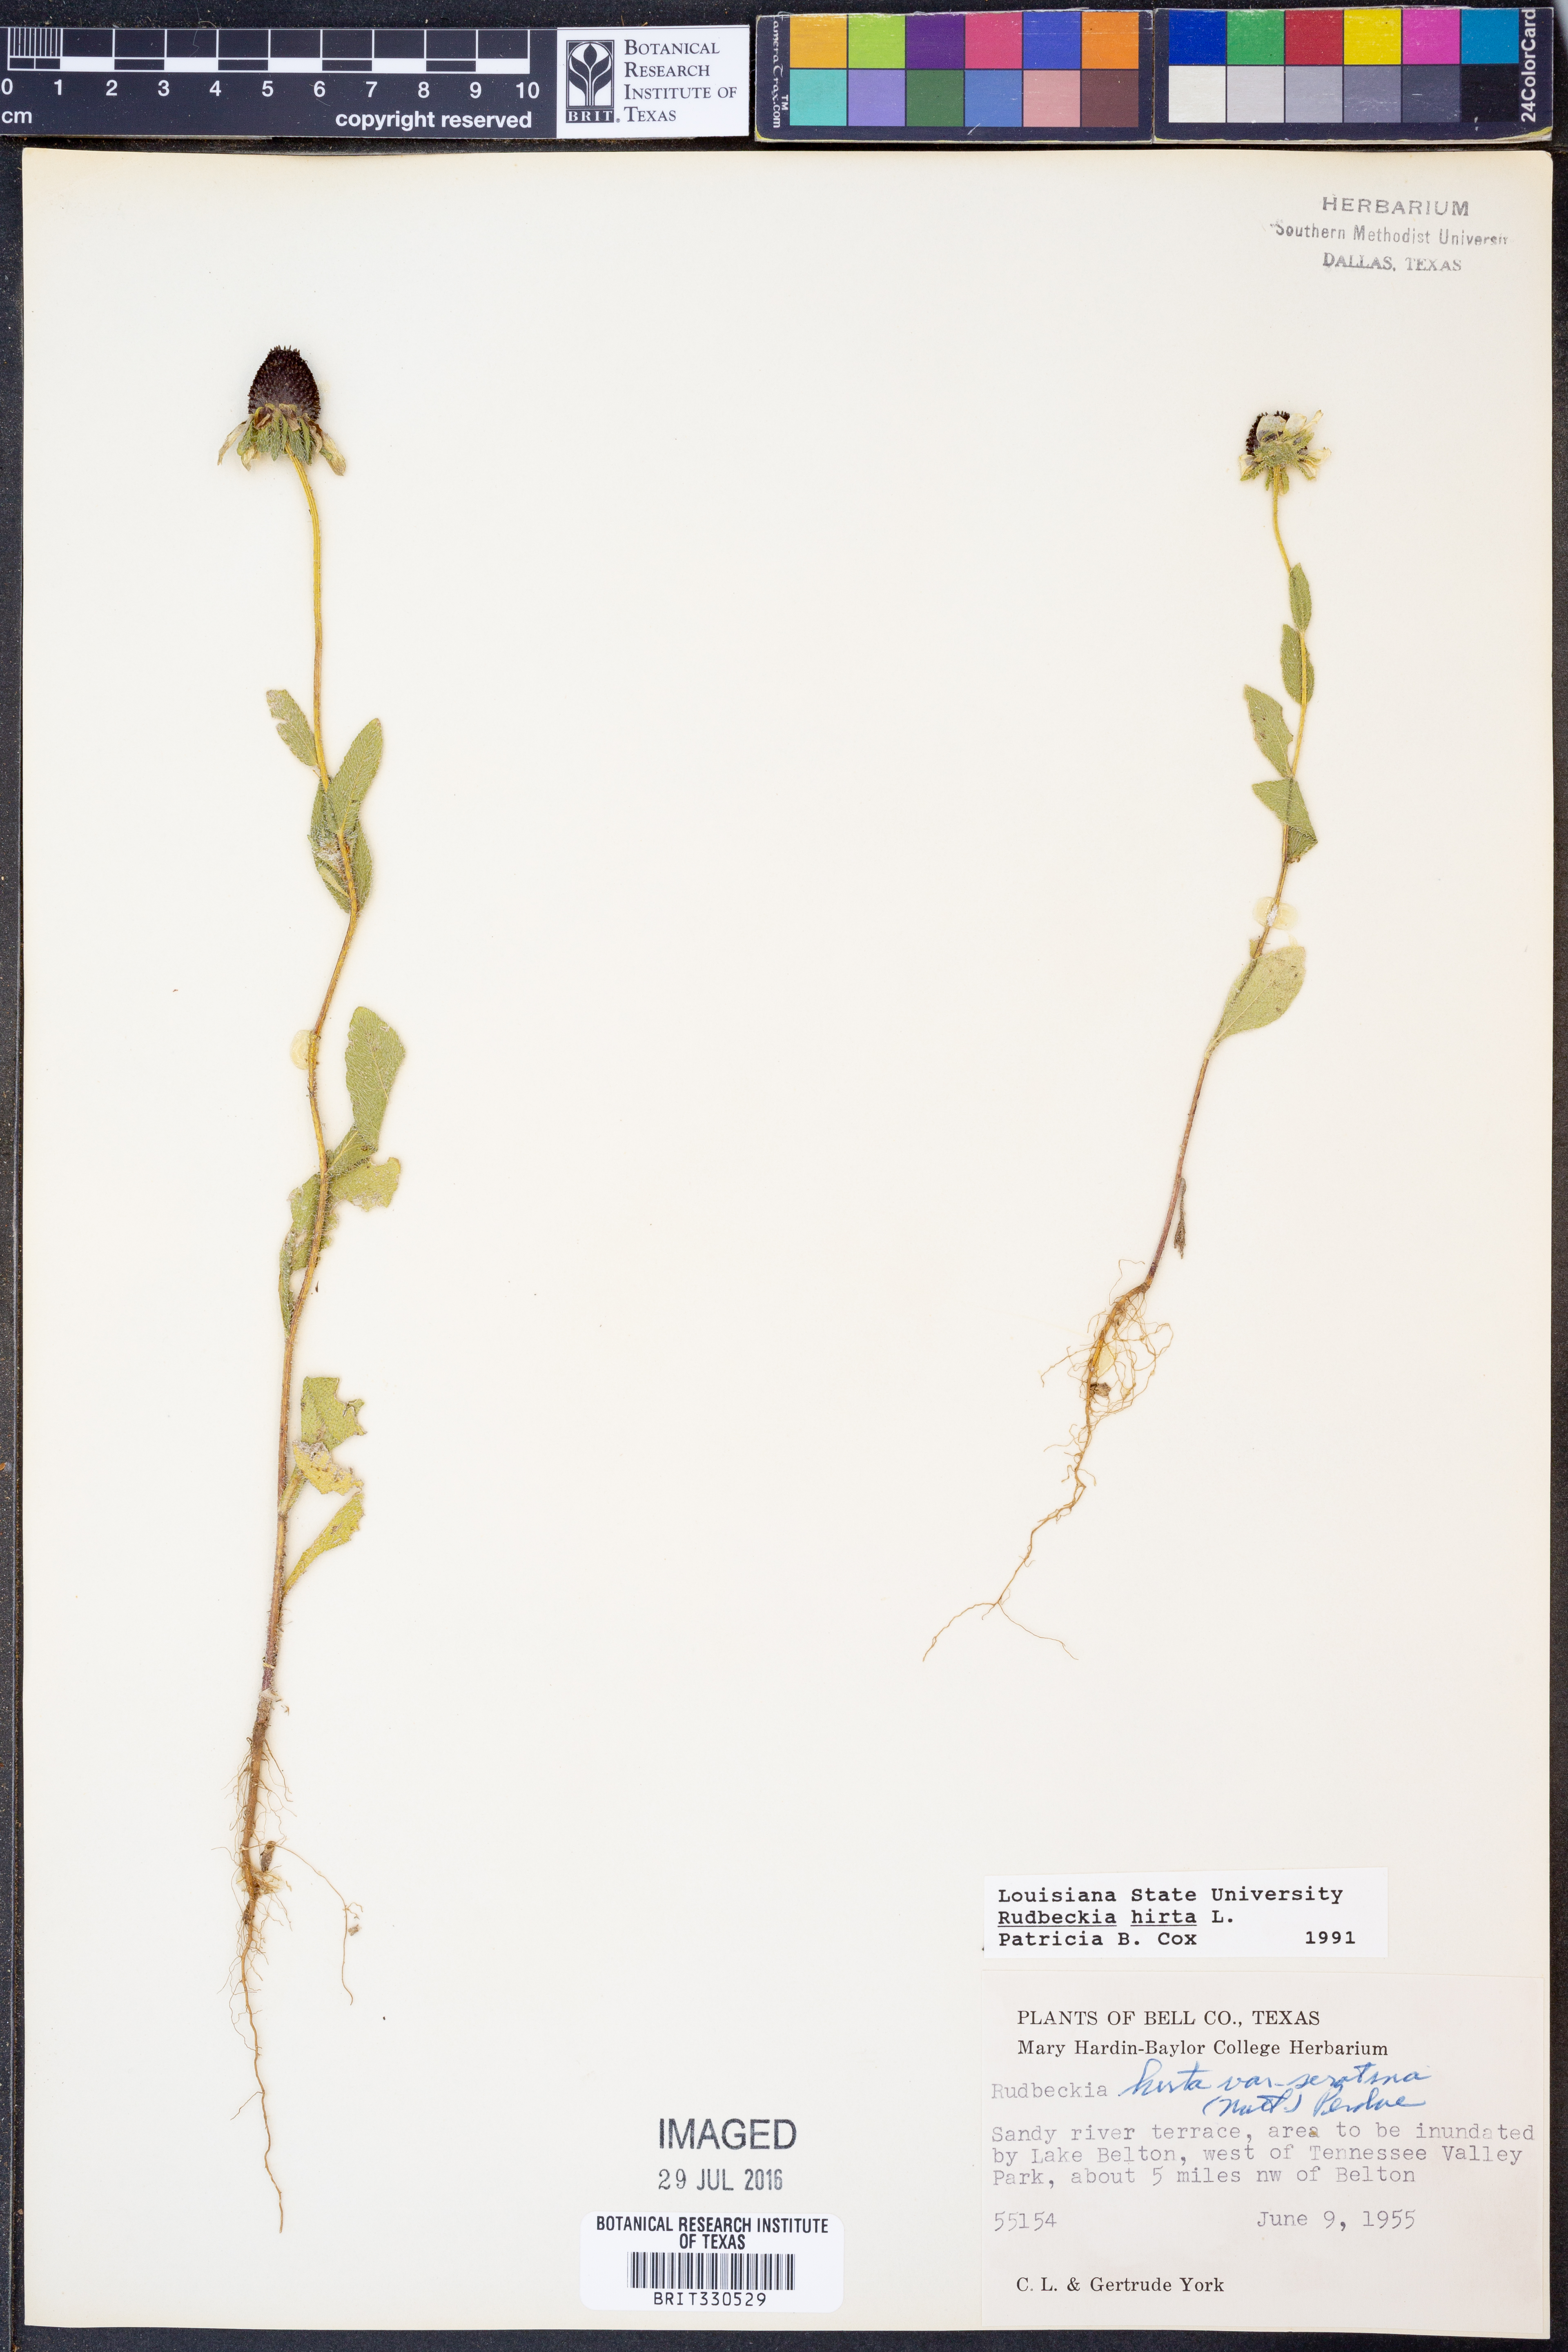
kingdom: Plantae
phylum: Tracheophyta
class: Magnoliopsida
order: Asterales
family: Asteraceae
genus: Rudbeckia
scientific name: Rudbeckia hirta
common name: Black-eyed-susan
